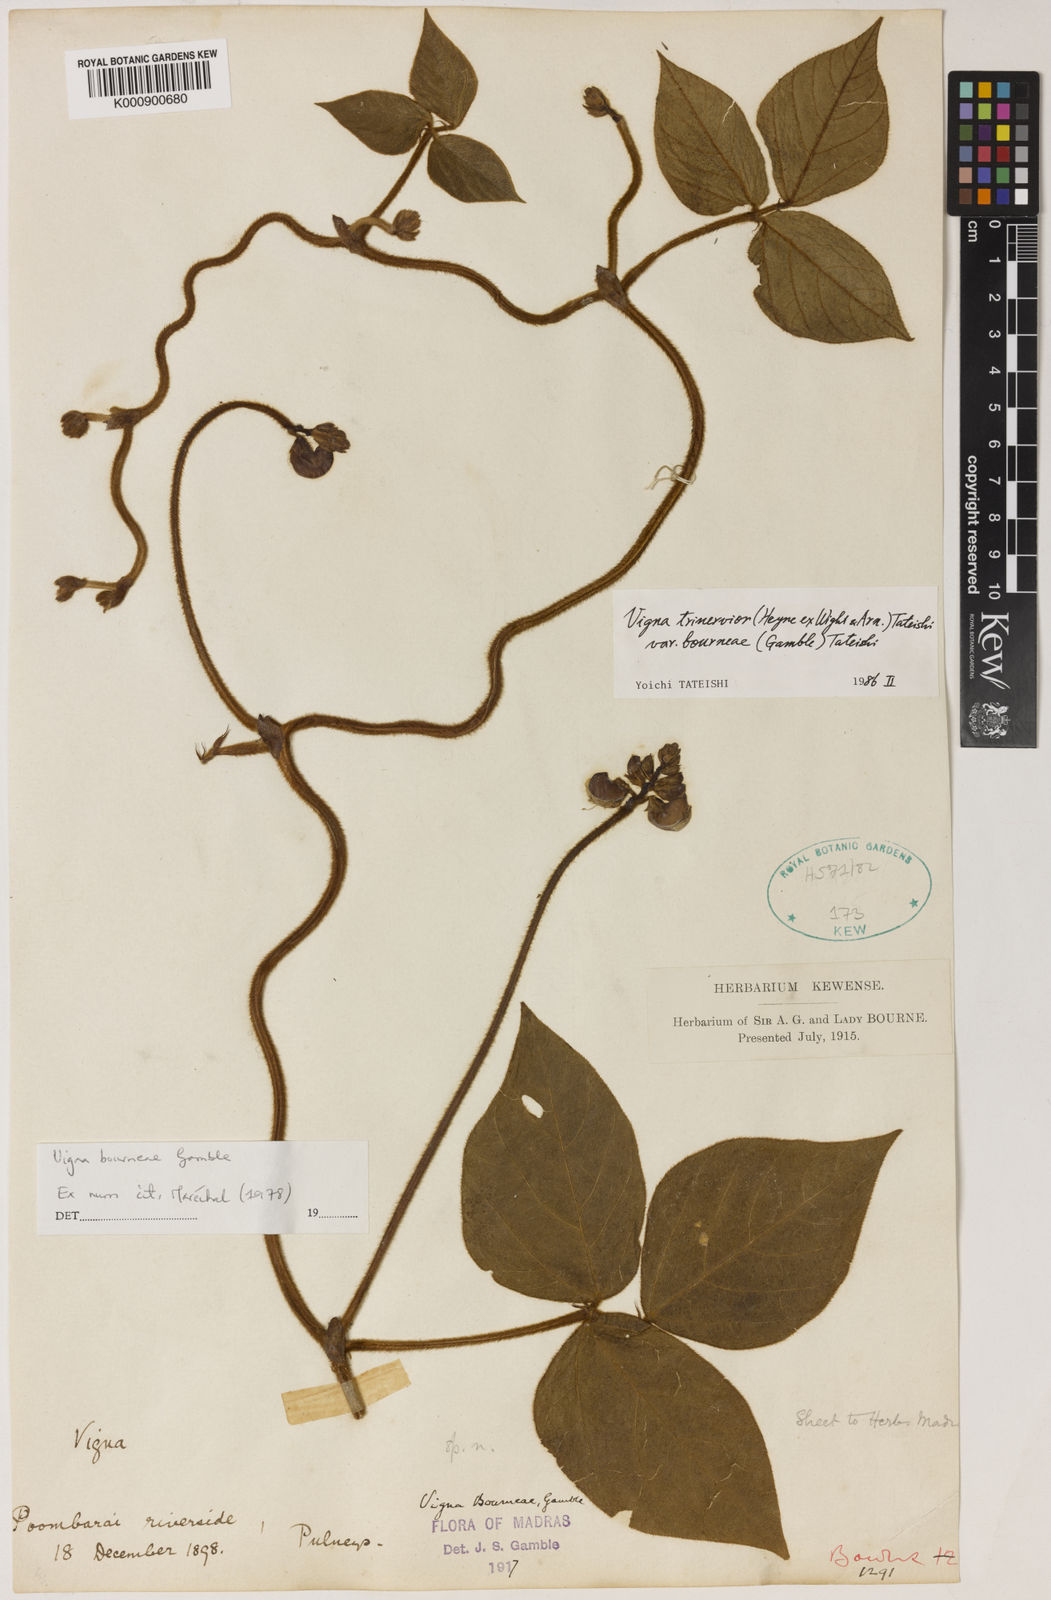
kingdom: Plantae
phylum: Tracheophyta
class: Magnoliopsida
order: Fabales
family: Fabaceae
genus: Vigna
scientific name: Vigna
